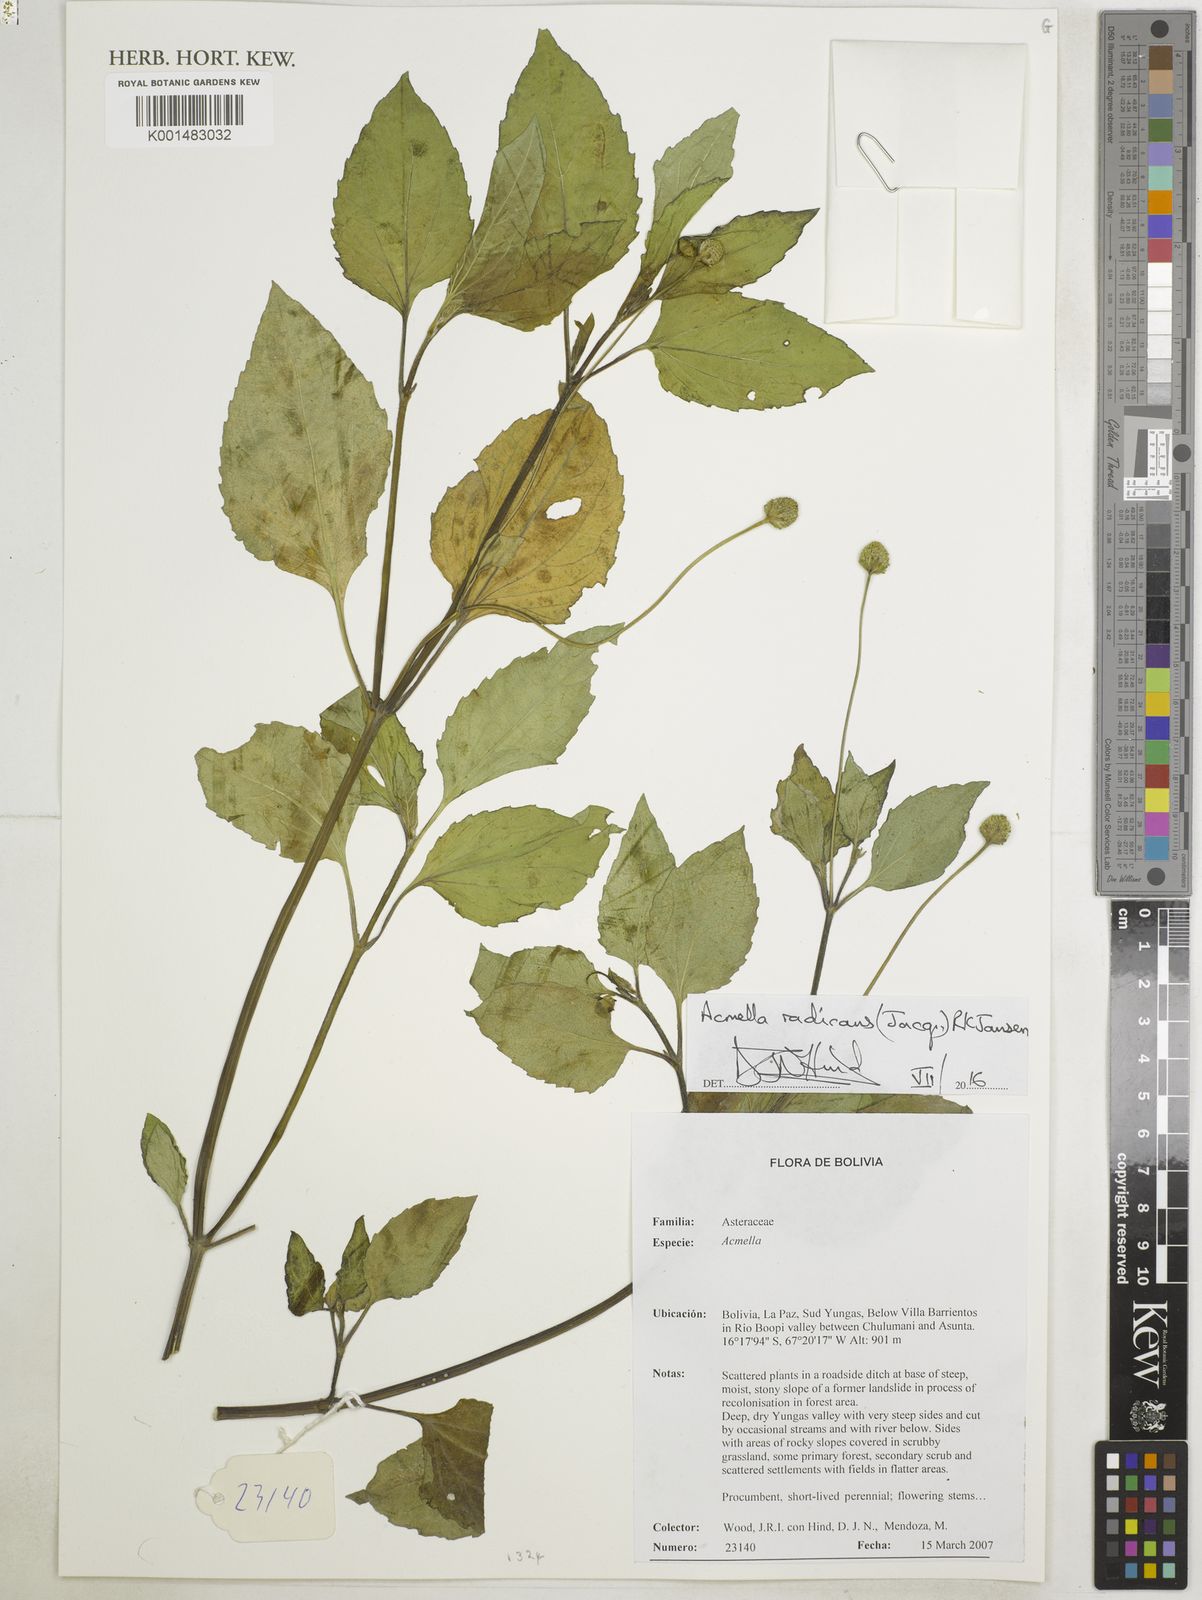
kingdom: Plantae
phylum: Tracheophyta
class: Magnoliopsida
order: Asterales
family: Asteraceae
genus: Acmella
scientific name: Acmella radicans
